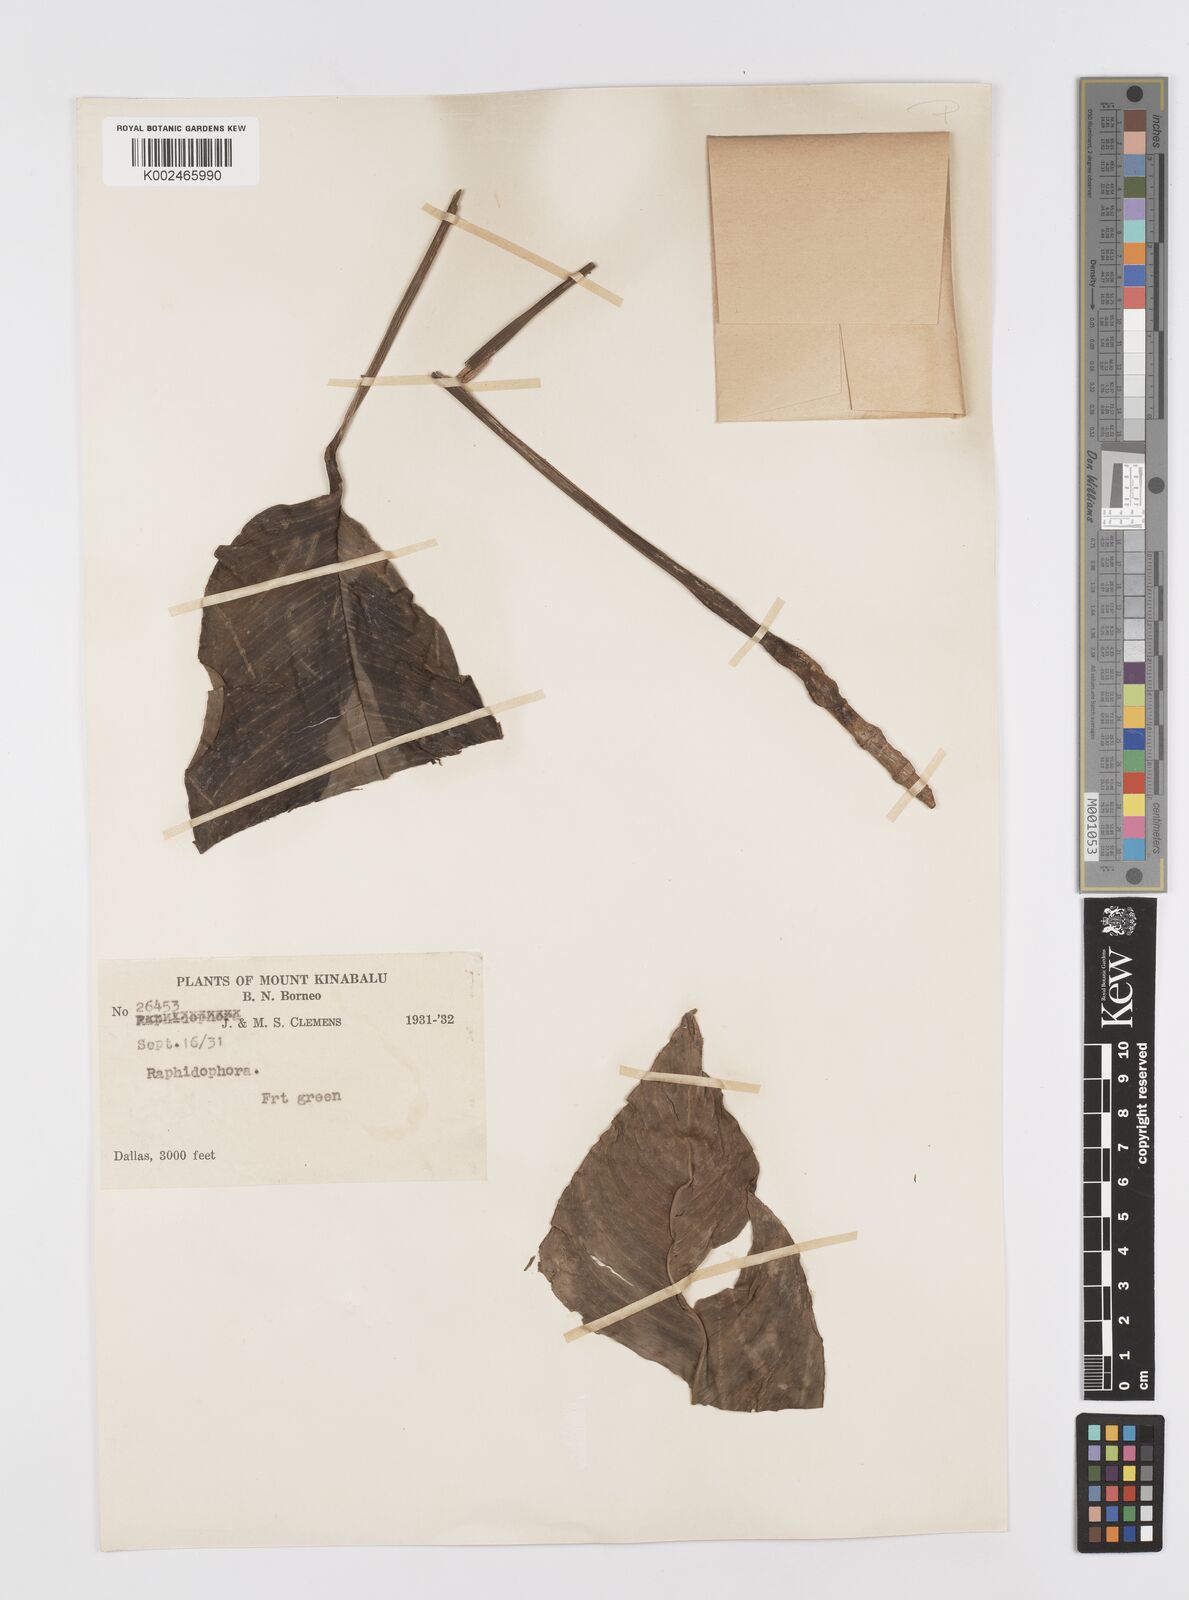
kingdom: Plantae
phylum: Tracheophyta
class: Liliopsida
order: Alismatales
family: Araceae
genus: Rhaphidophora
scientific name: Rhaphidophora puberula
